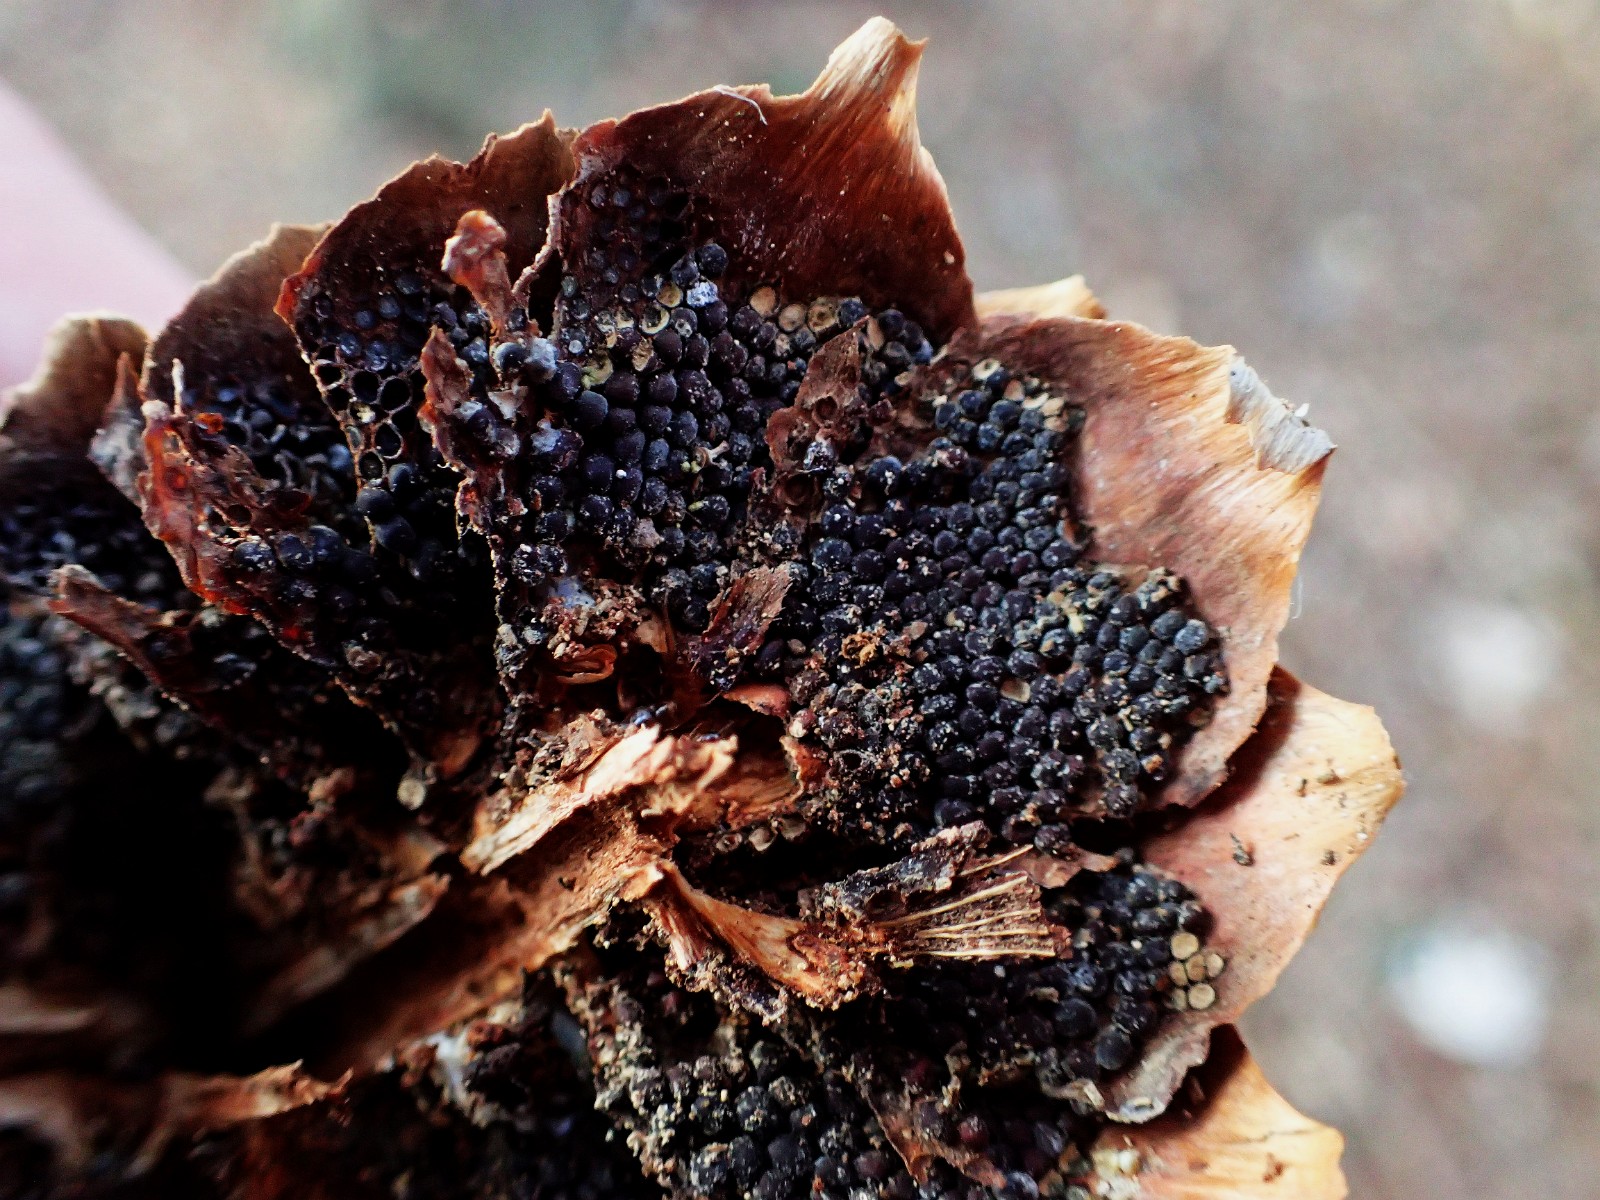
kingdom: Fungi
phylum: Basidiomycota
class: Pucciniomycetes
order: Pucciniales
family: Pucciniastraceae
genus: Thekopsora
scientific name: Thekopsora areolata
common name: grankogle-nålerust
